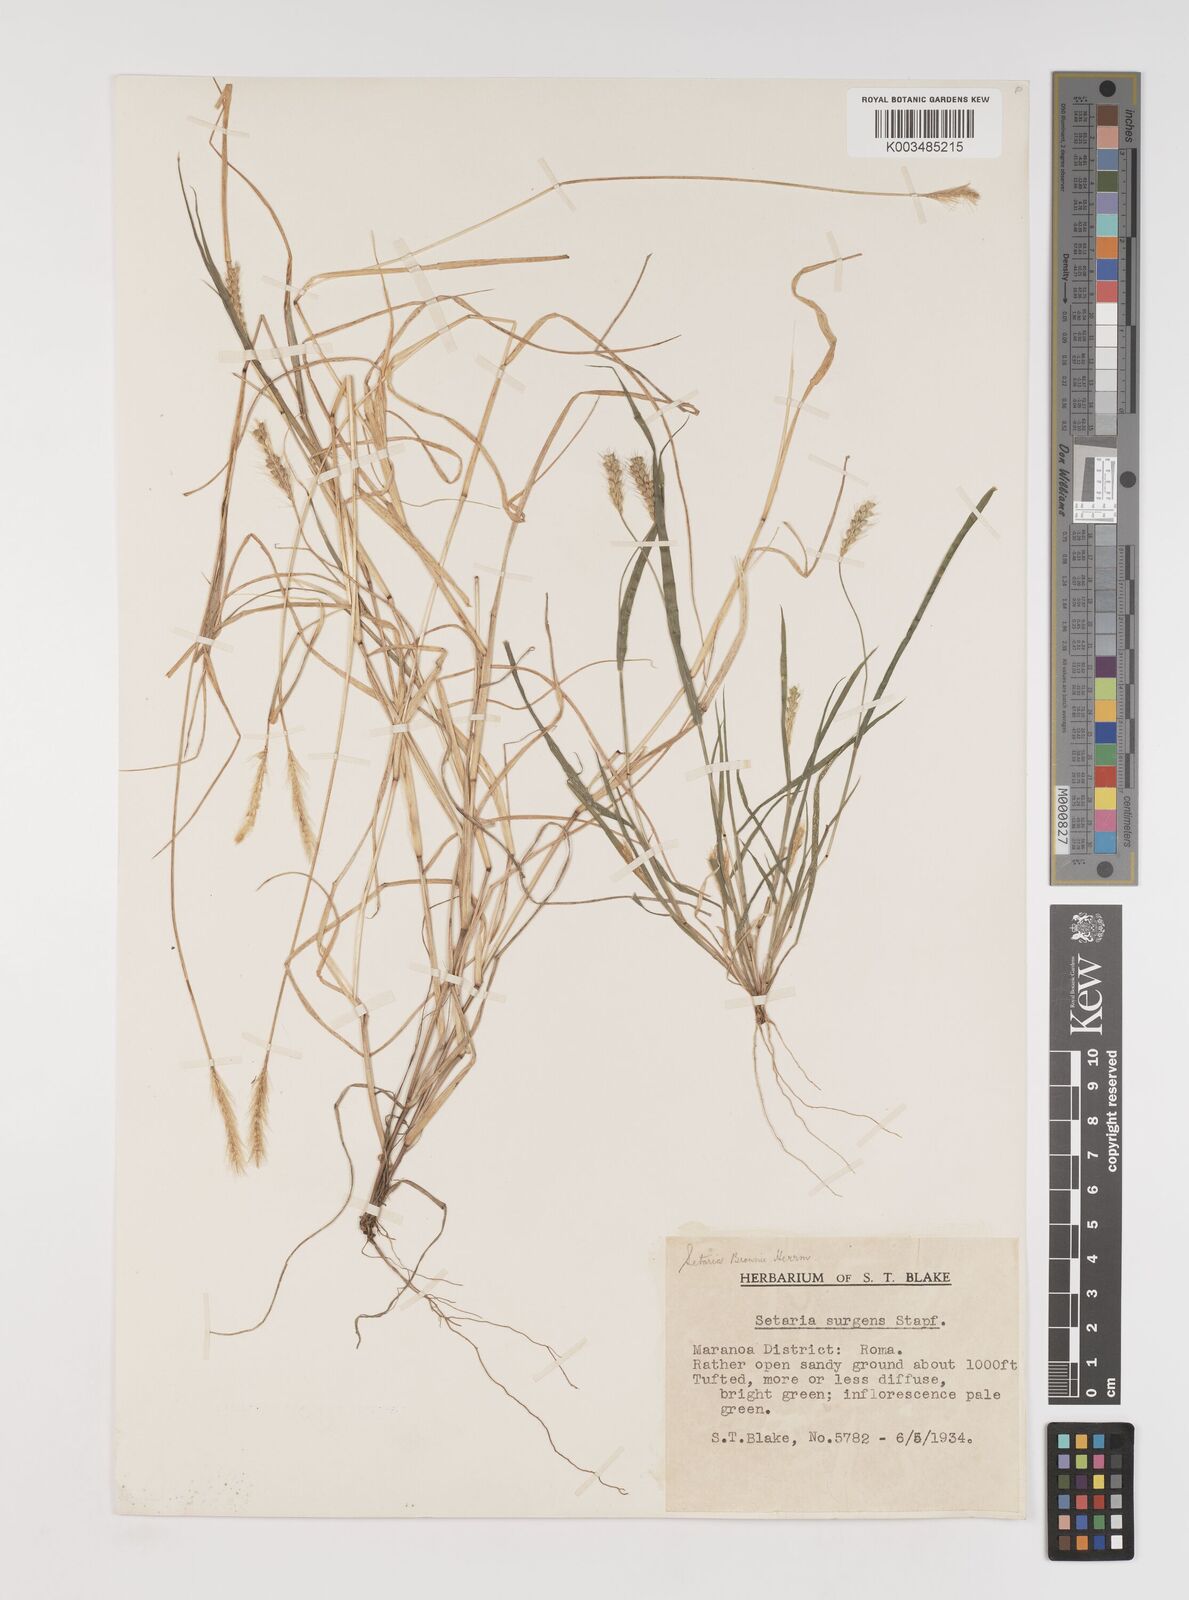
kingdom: Plantae
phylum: Tracheophyta
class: Liliopsida
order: Poales
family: Poaceae
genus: Setaria
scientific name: Setaria surgens
